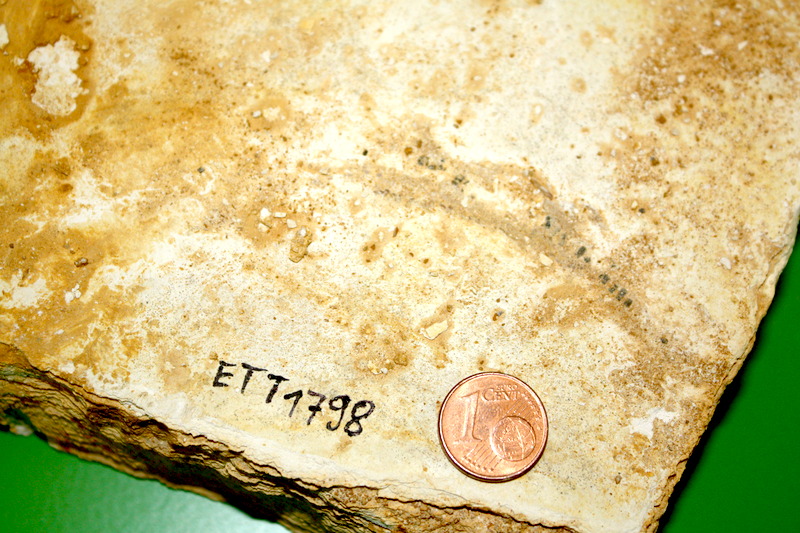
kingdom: Animalia
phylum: Chordata
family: Aspidorhynchidae
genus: Belonostomus
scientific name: Belonostomus
